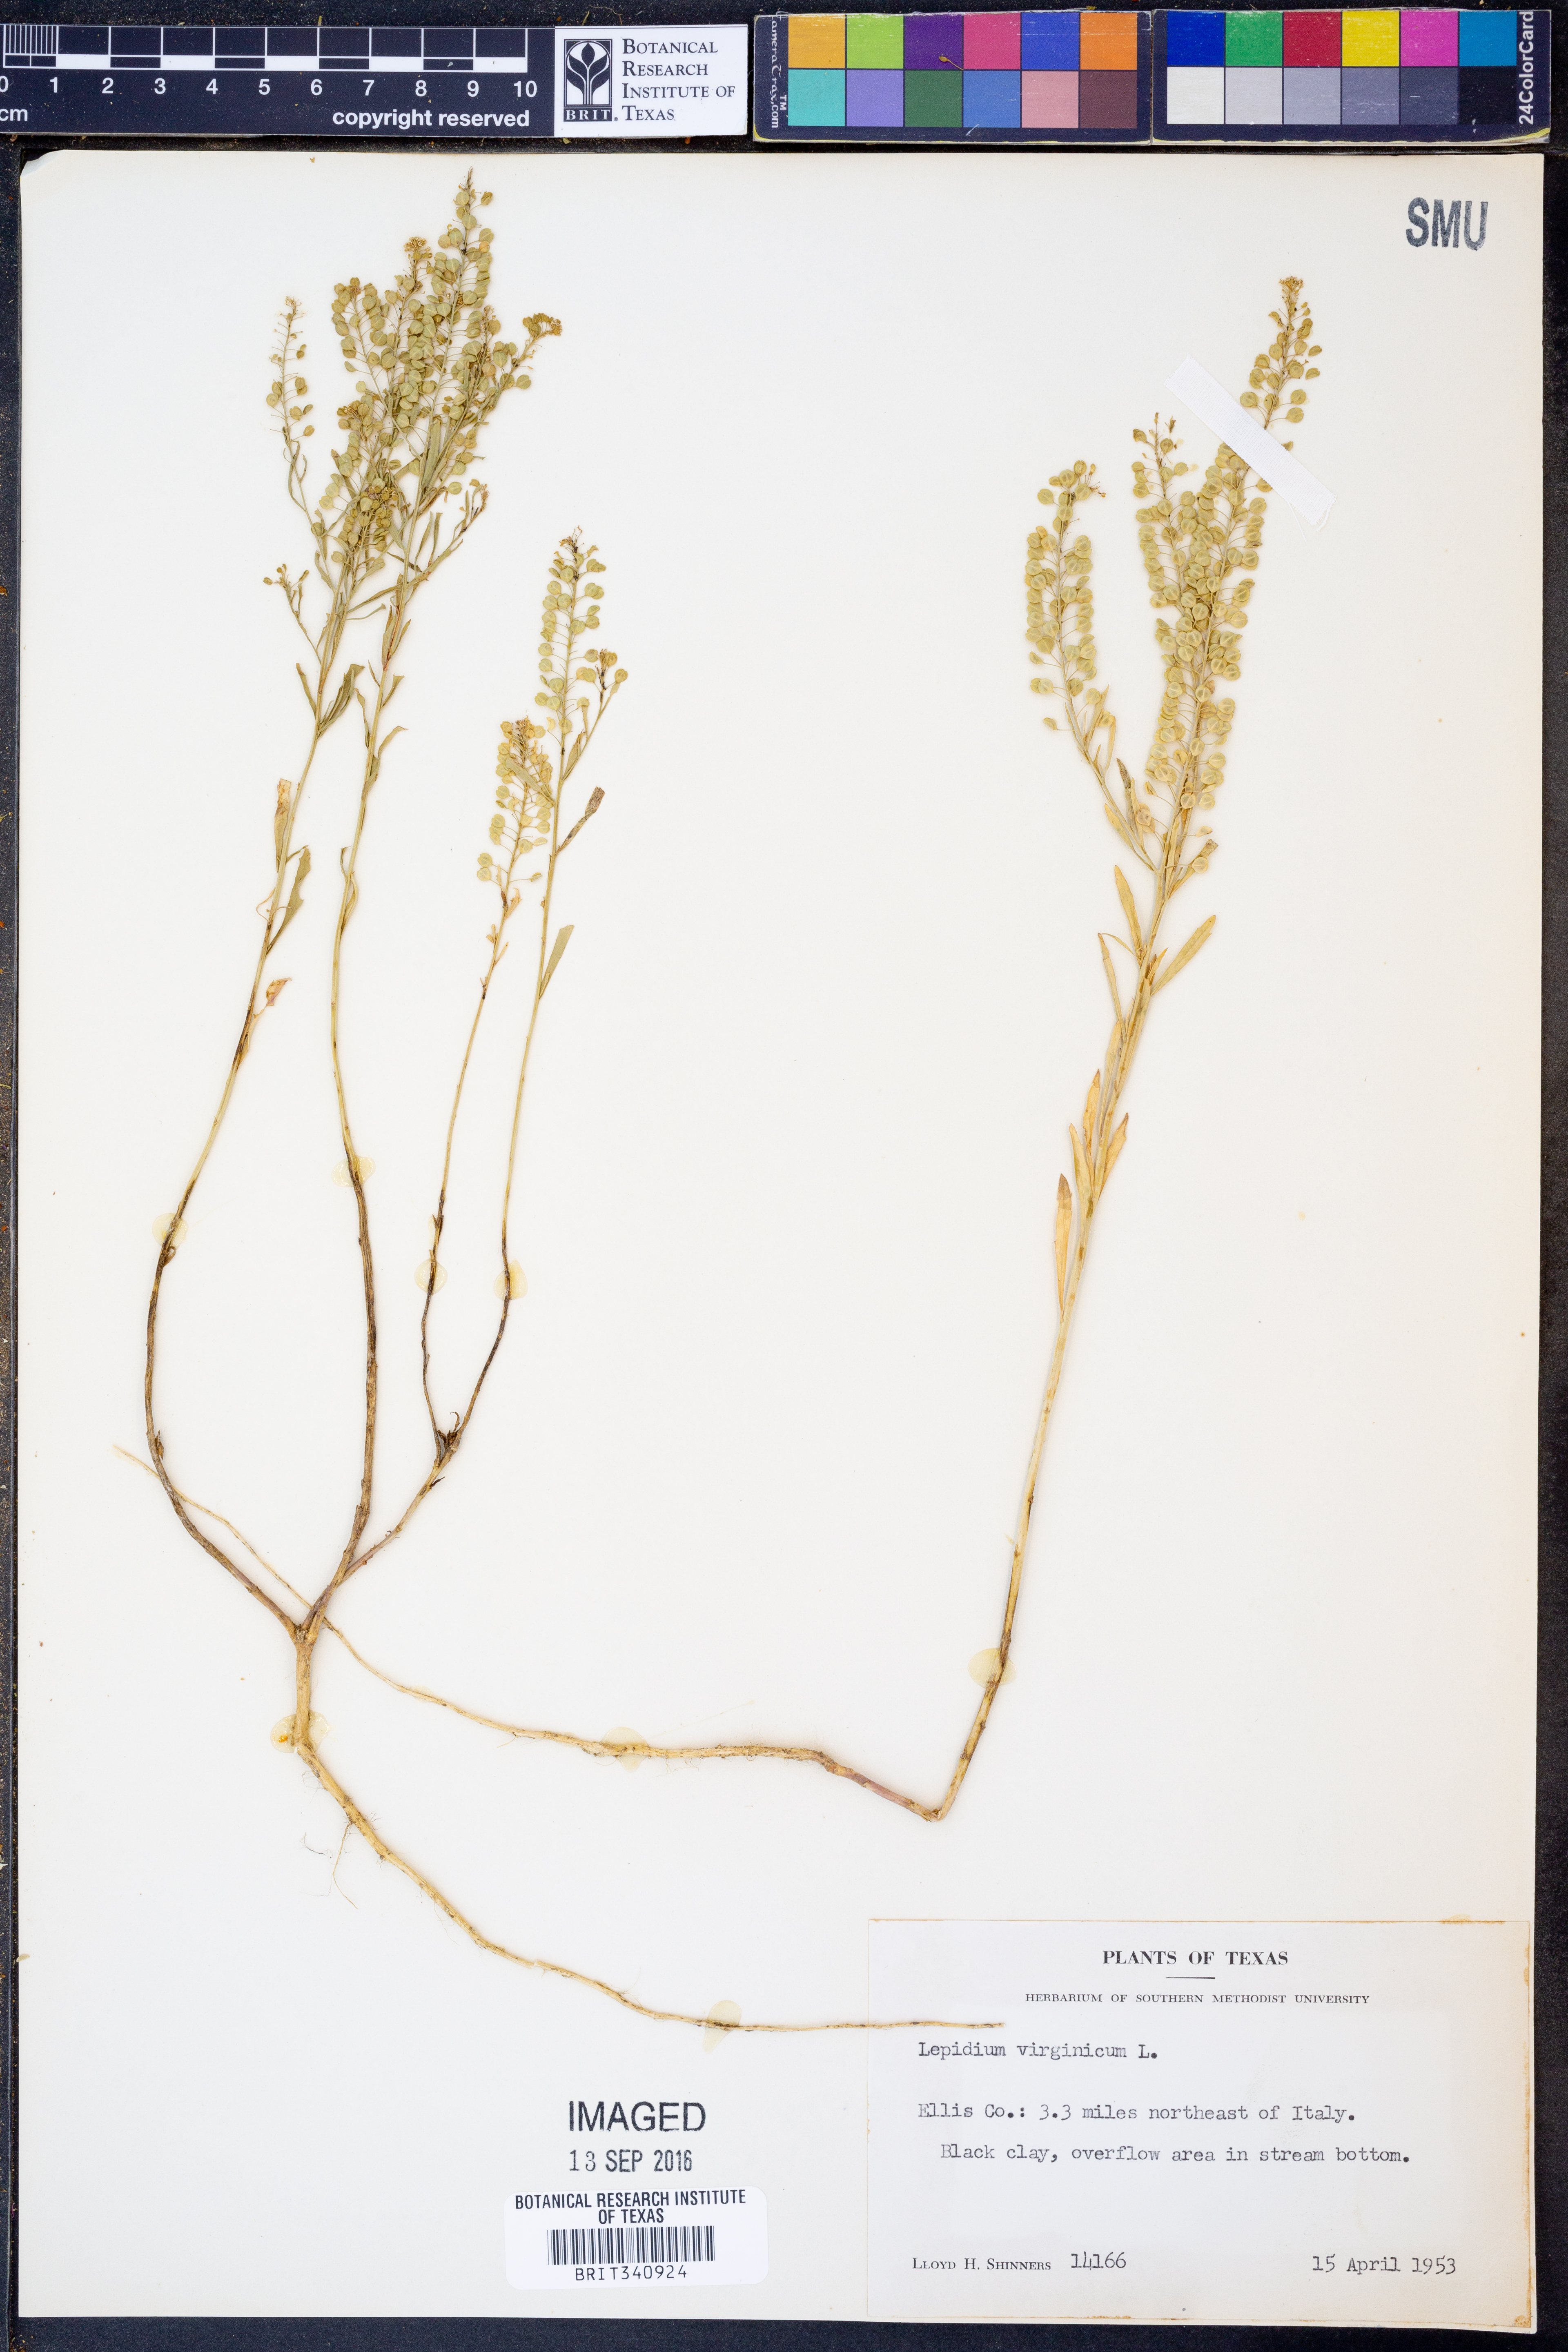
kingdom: Plantae
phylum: Tracheophyta
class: Magnoliopsida
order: Brassicales
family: Brassicaceae
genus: Lepidium
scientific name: Lepidium virginicum
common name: Least pepperwort
